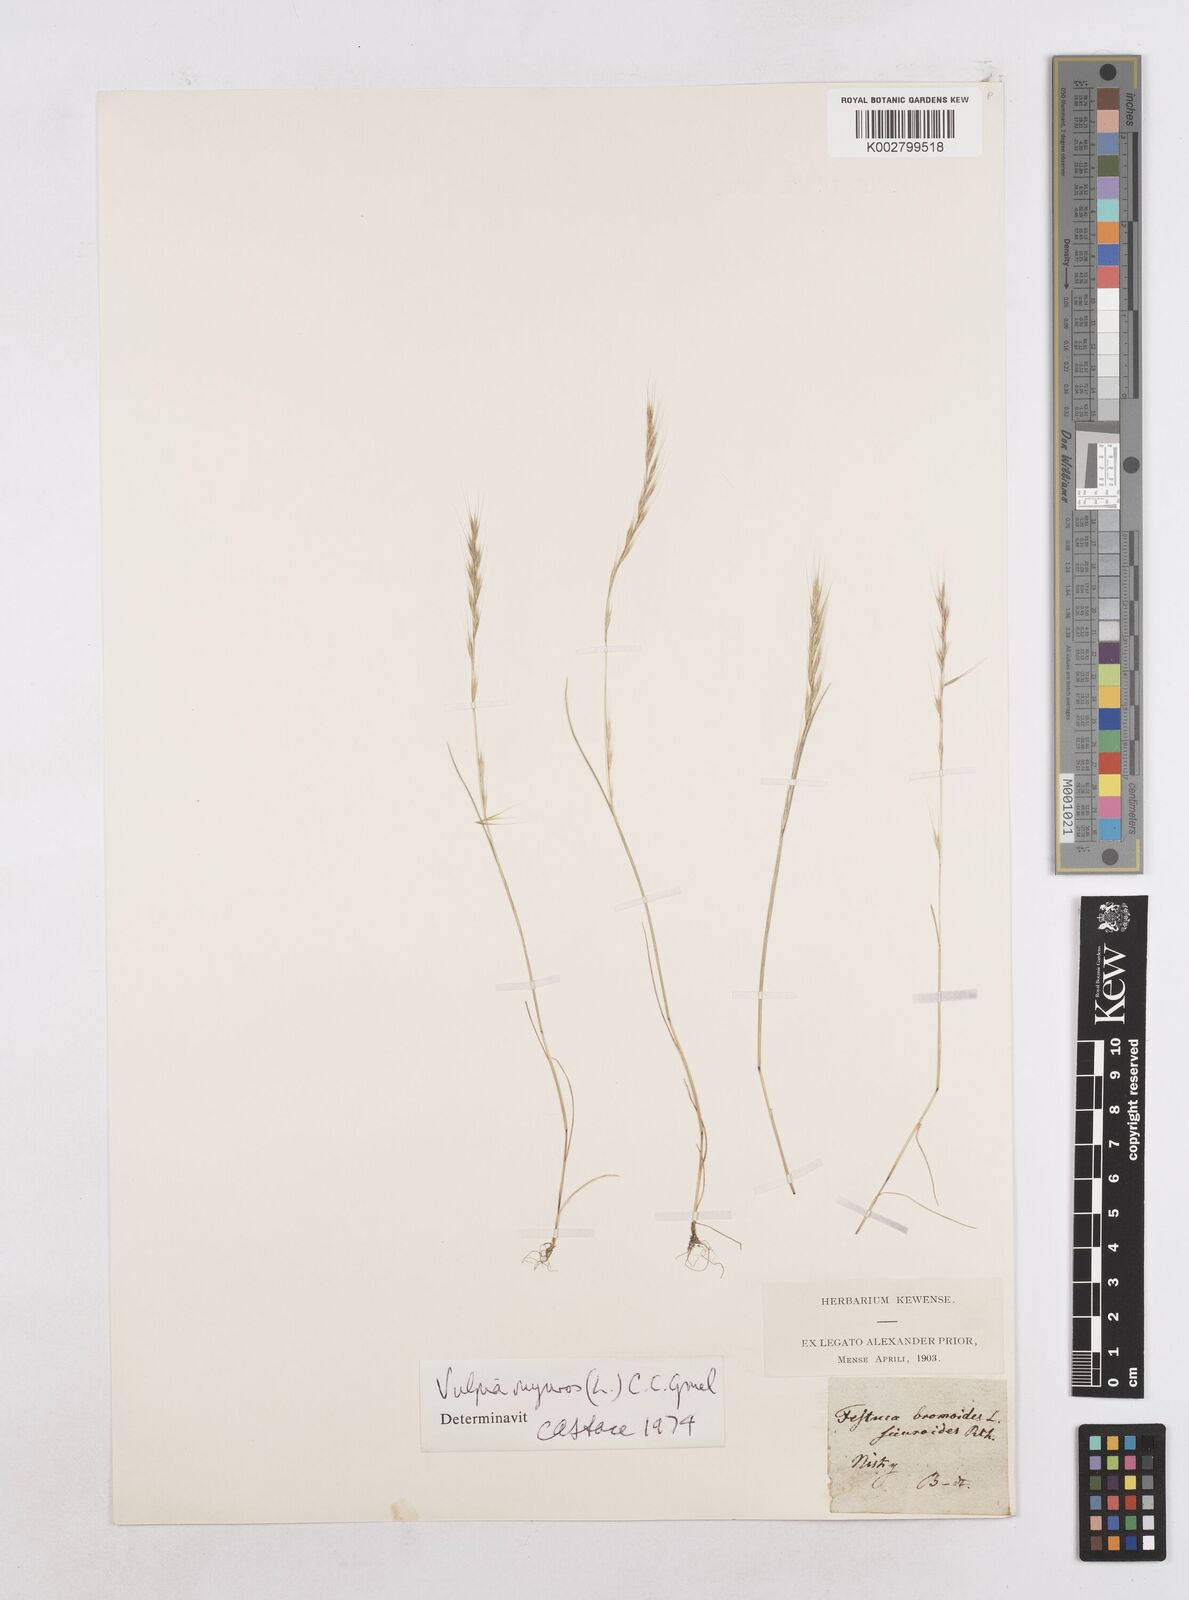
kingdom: Plantae
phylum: Tracheophyta
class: Liliopsida
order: Poales
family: Poaceae
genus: Festuca
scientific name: Festuca myuros
